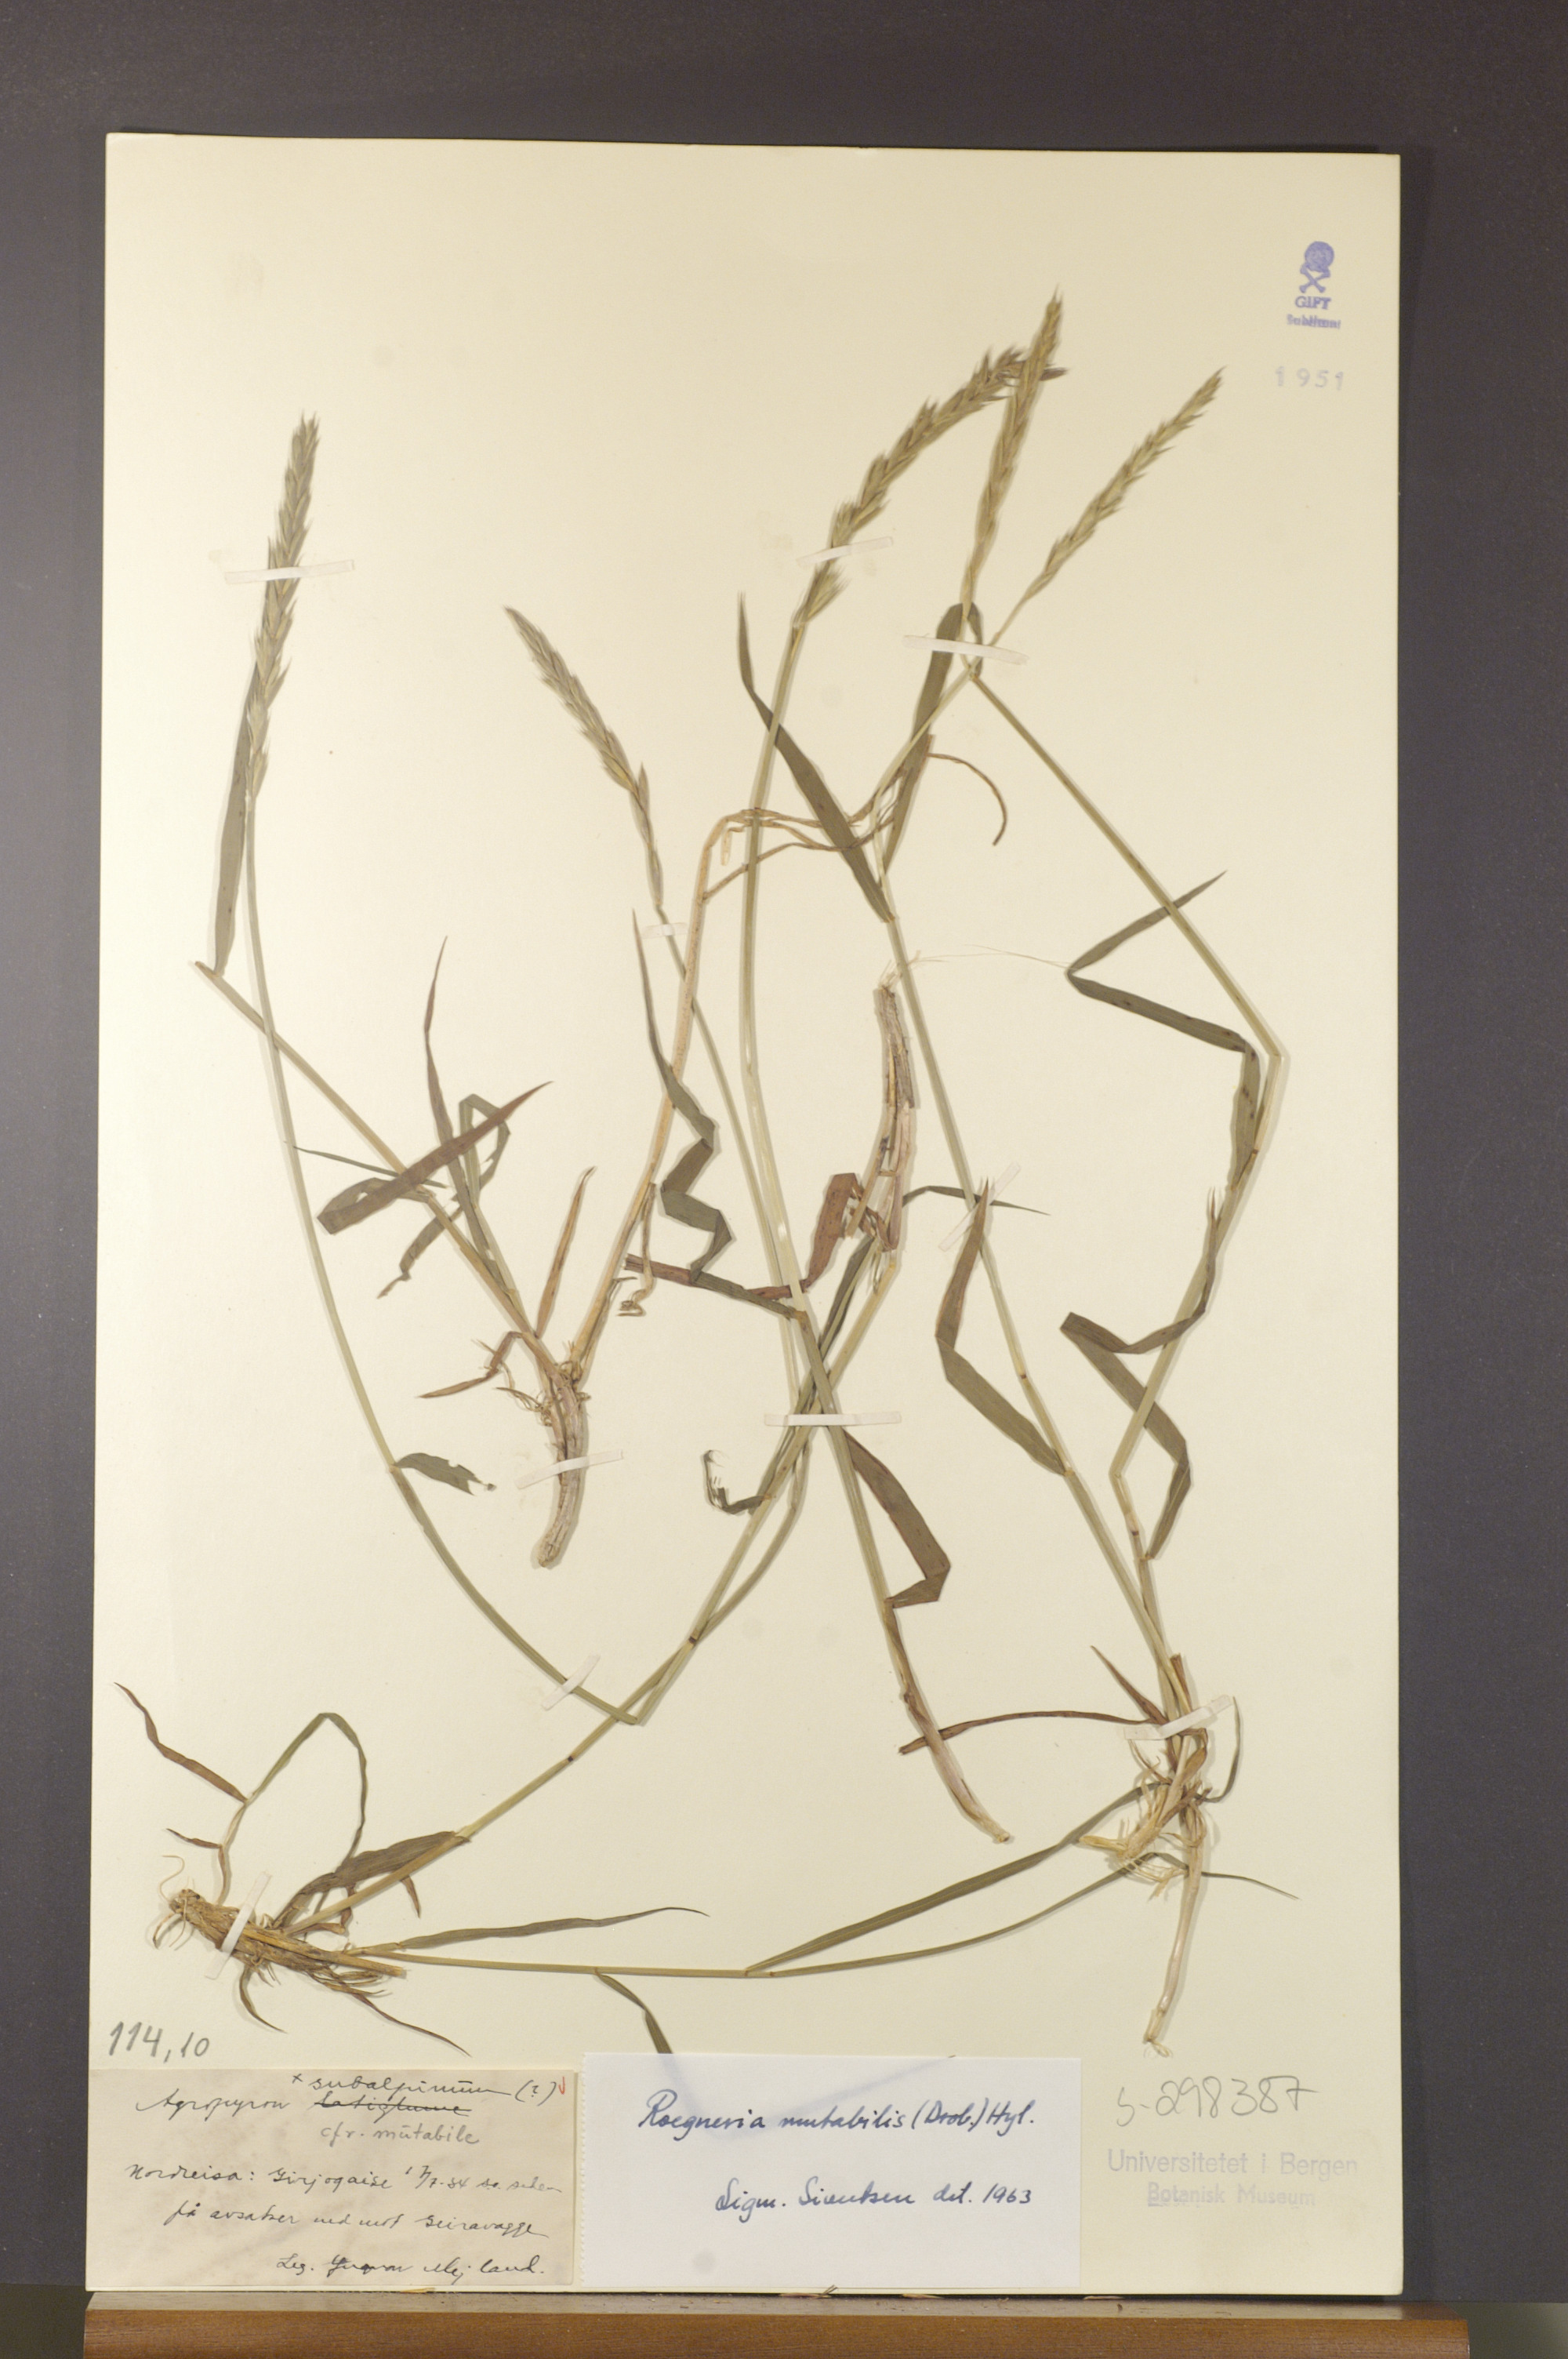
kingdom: Plantae
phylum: Tracheophyta
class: Liliopsida
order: Poales
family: Poaceae
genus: Elymus
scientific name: Elymus mutabilis
